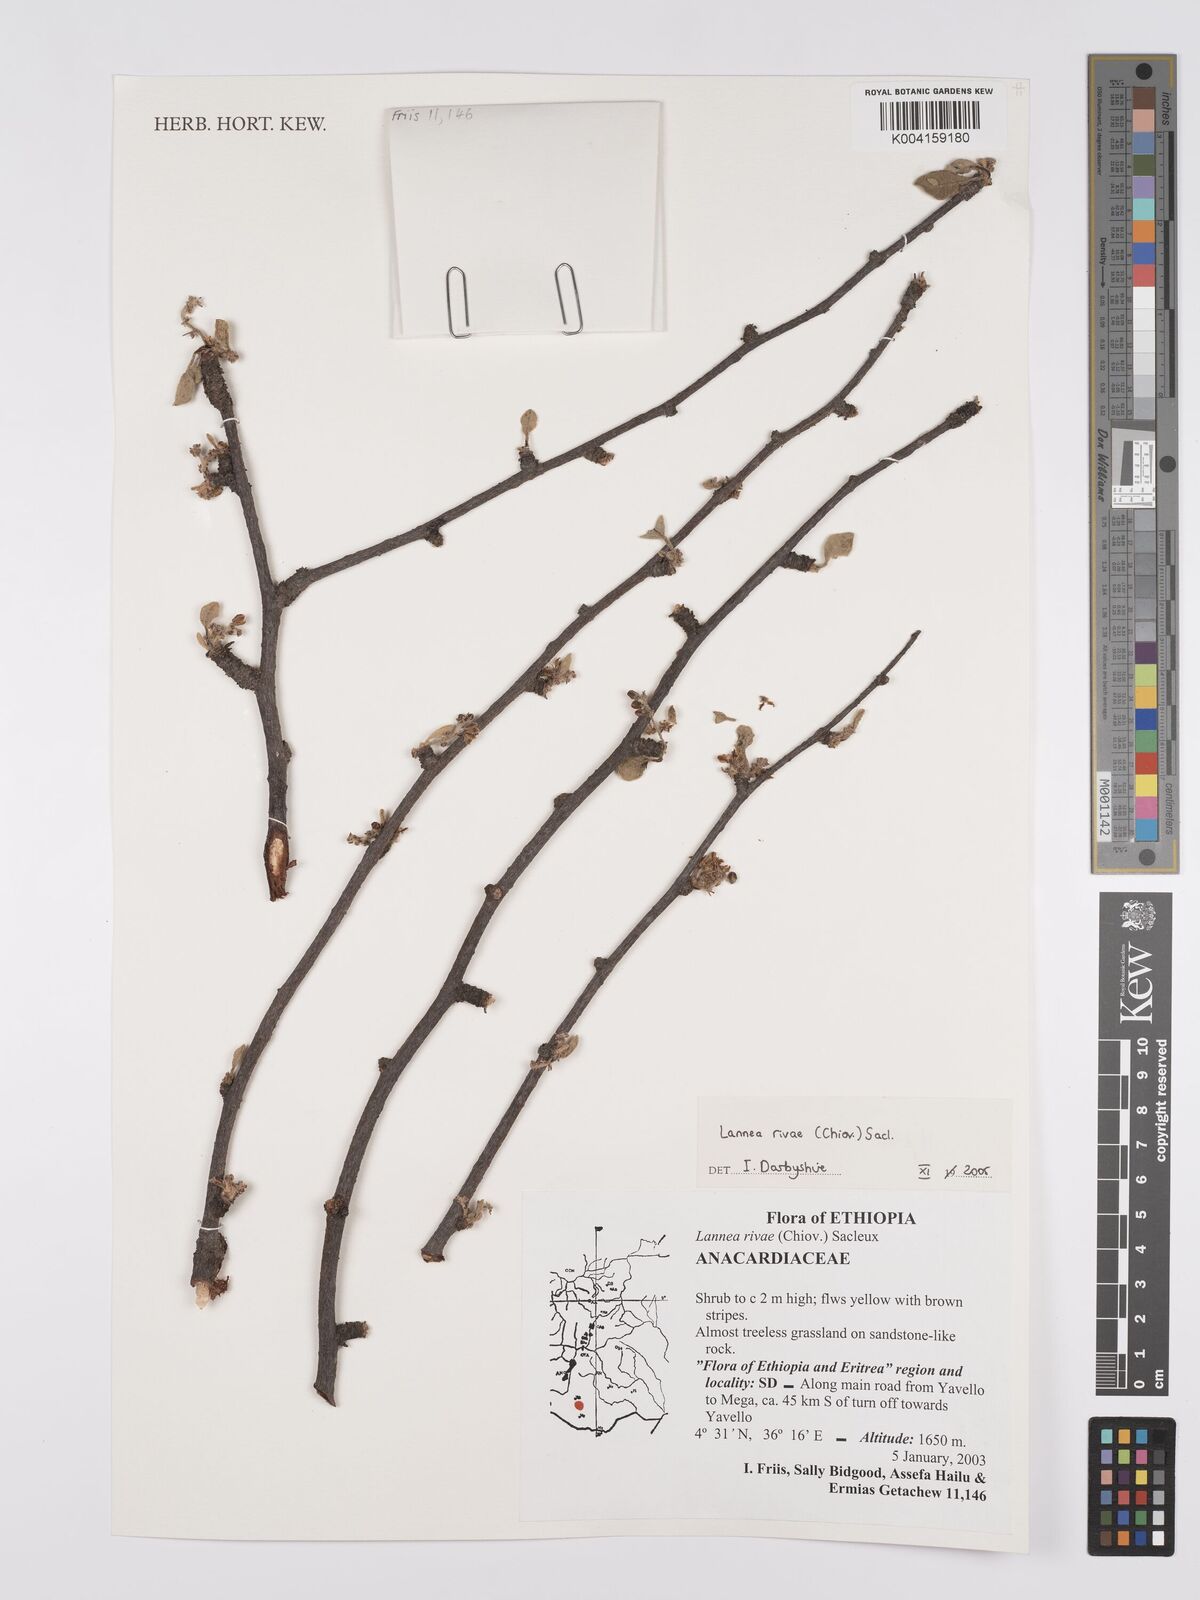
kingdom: Plantae
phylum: Tracheophyta
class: Magnoliopsida
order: Sapindales
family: Anacardiaceae
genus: Lannea
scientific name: Lannea rivae
